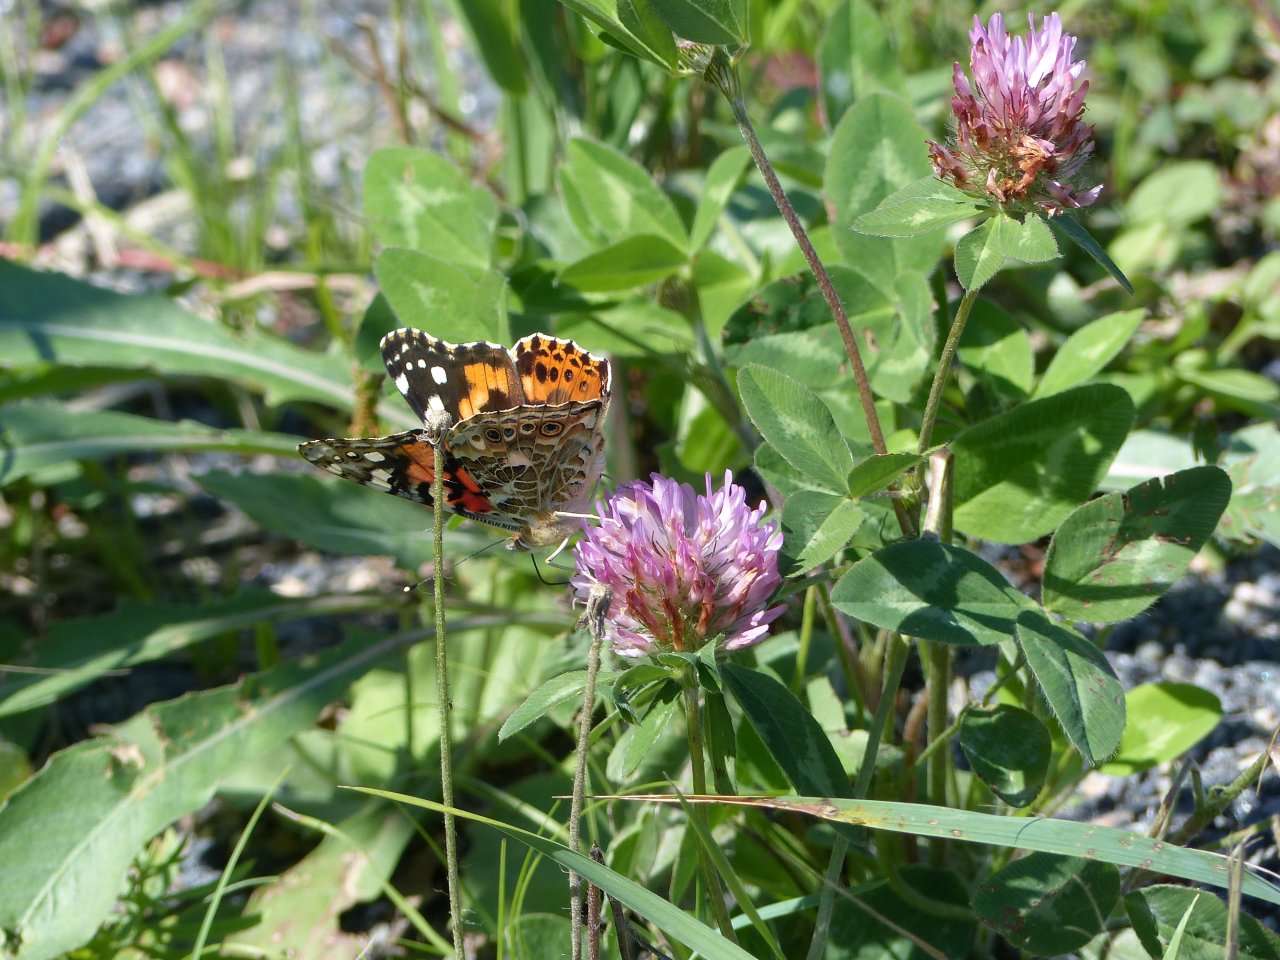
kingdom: Animalia
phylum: Arthropoda
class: Insecta
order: Lepidoptera
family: Nymphalidae
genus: Vanessa
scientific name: Vanessa cardui
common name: Painted Lady
